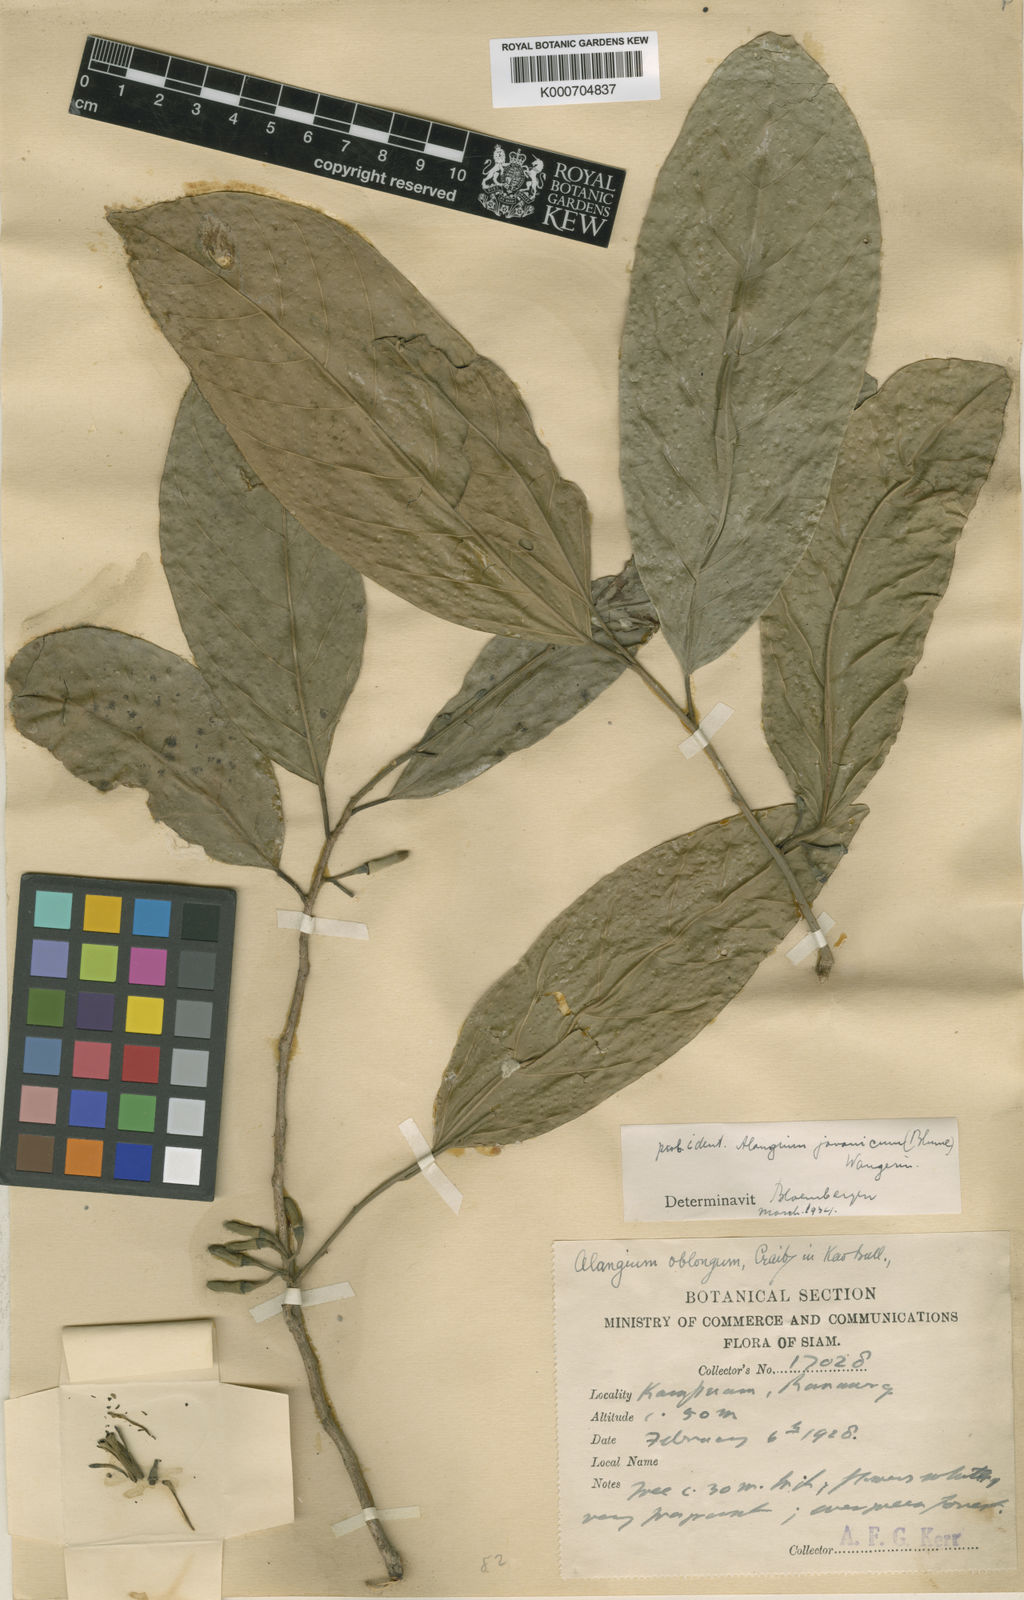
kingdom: Plantae
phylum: Tracheophyta
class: Magnoliopsida
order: Cornales
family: Cornaceae
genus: Alangium
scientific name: Alangium oblongum
